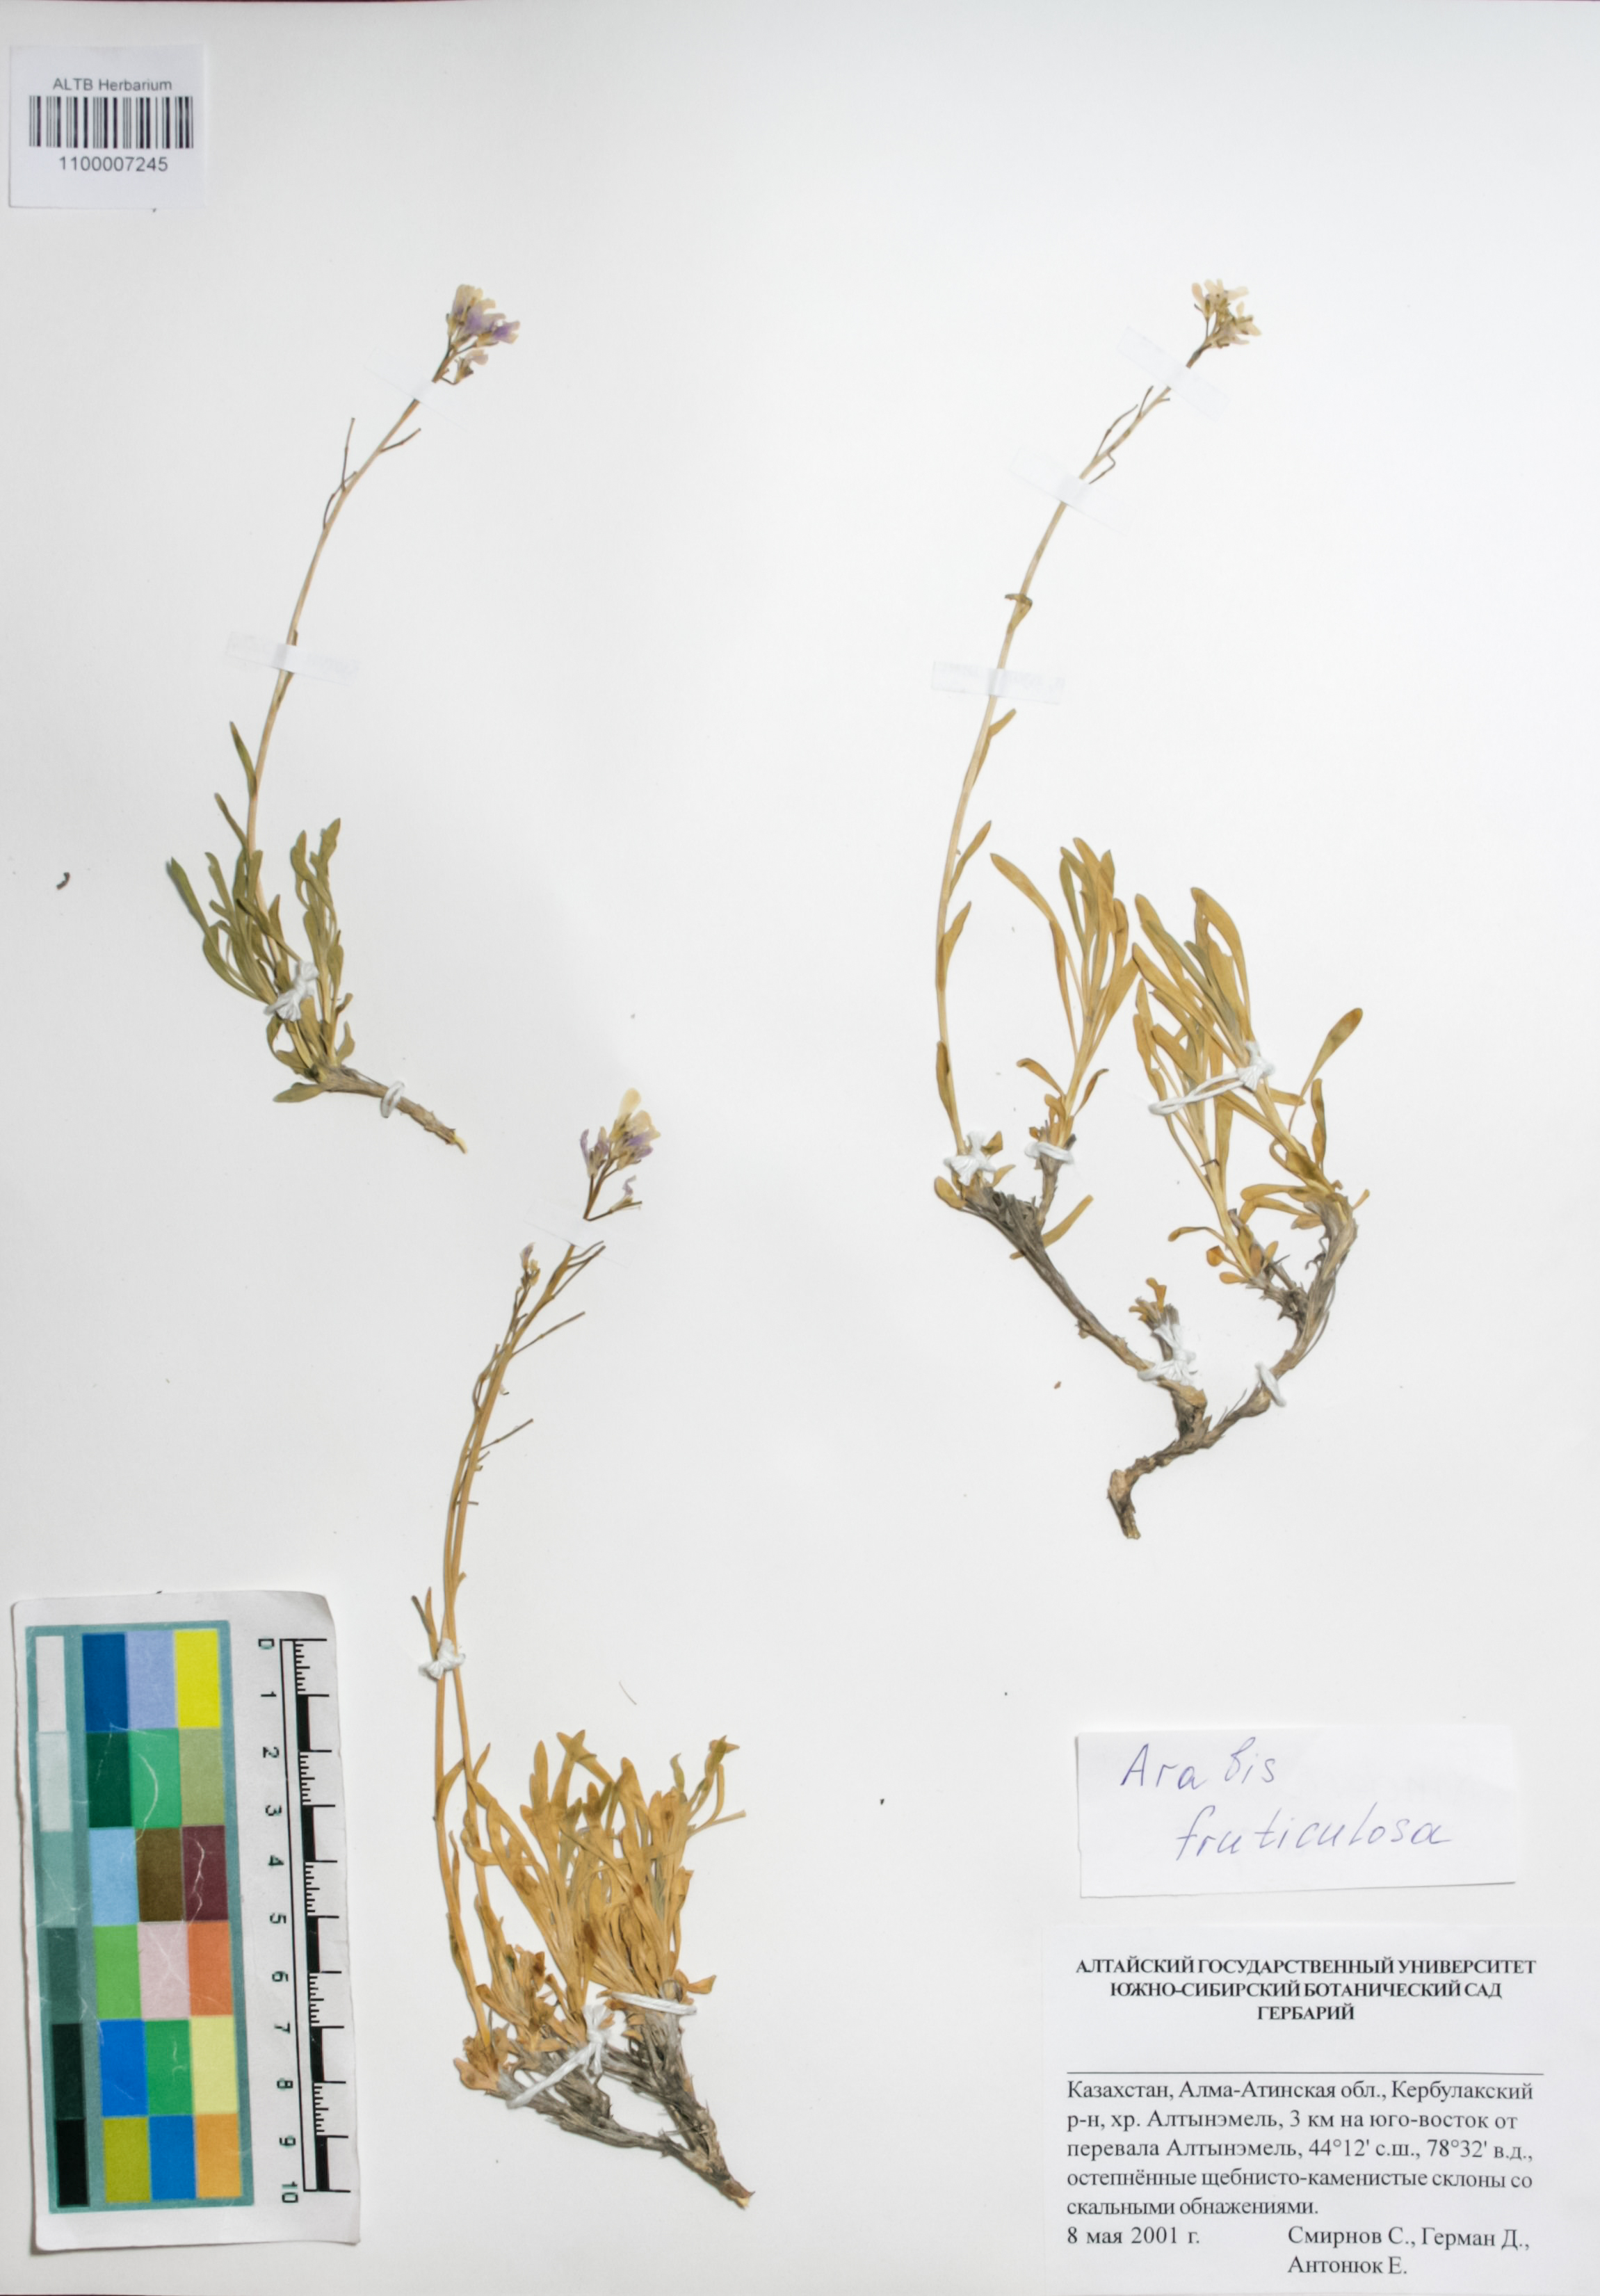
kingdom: Plantae
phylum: Tracheophyta
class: Magnoliopsida
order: Brassicales
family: Brassicaceae
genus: Dendroarabis
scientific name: Dendroarabis fruticulosa
